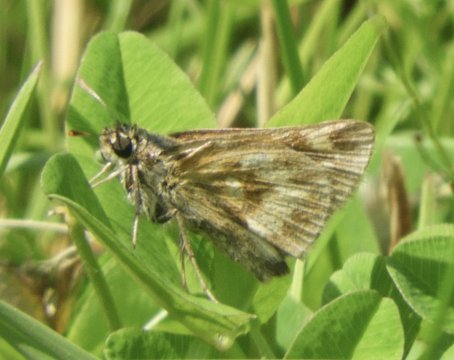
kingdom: Animalia
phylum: Arthropoda
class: Insecta
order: Lepidoptera
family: Hesperiidae
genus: Polites
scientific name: Polites
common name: Long Dash Skipper
